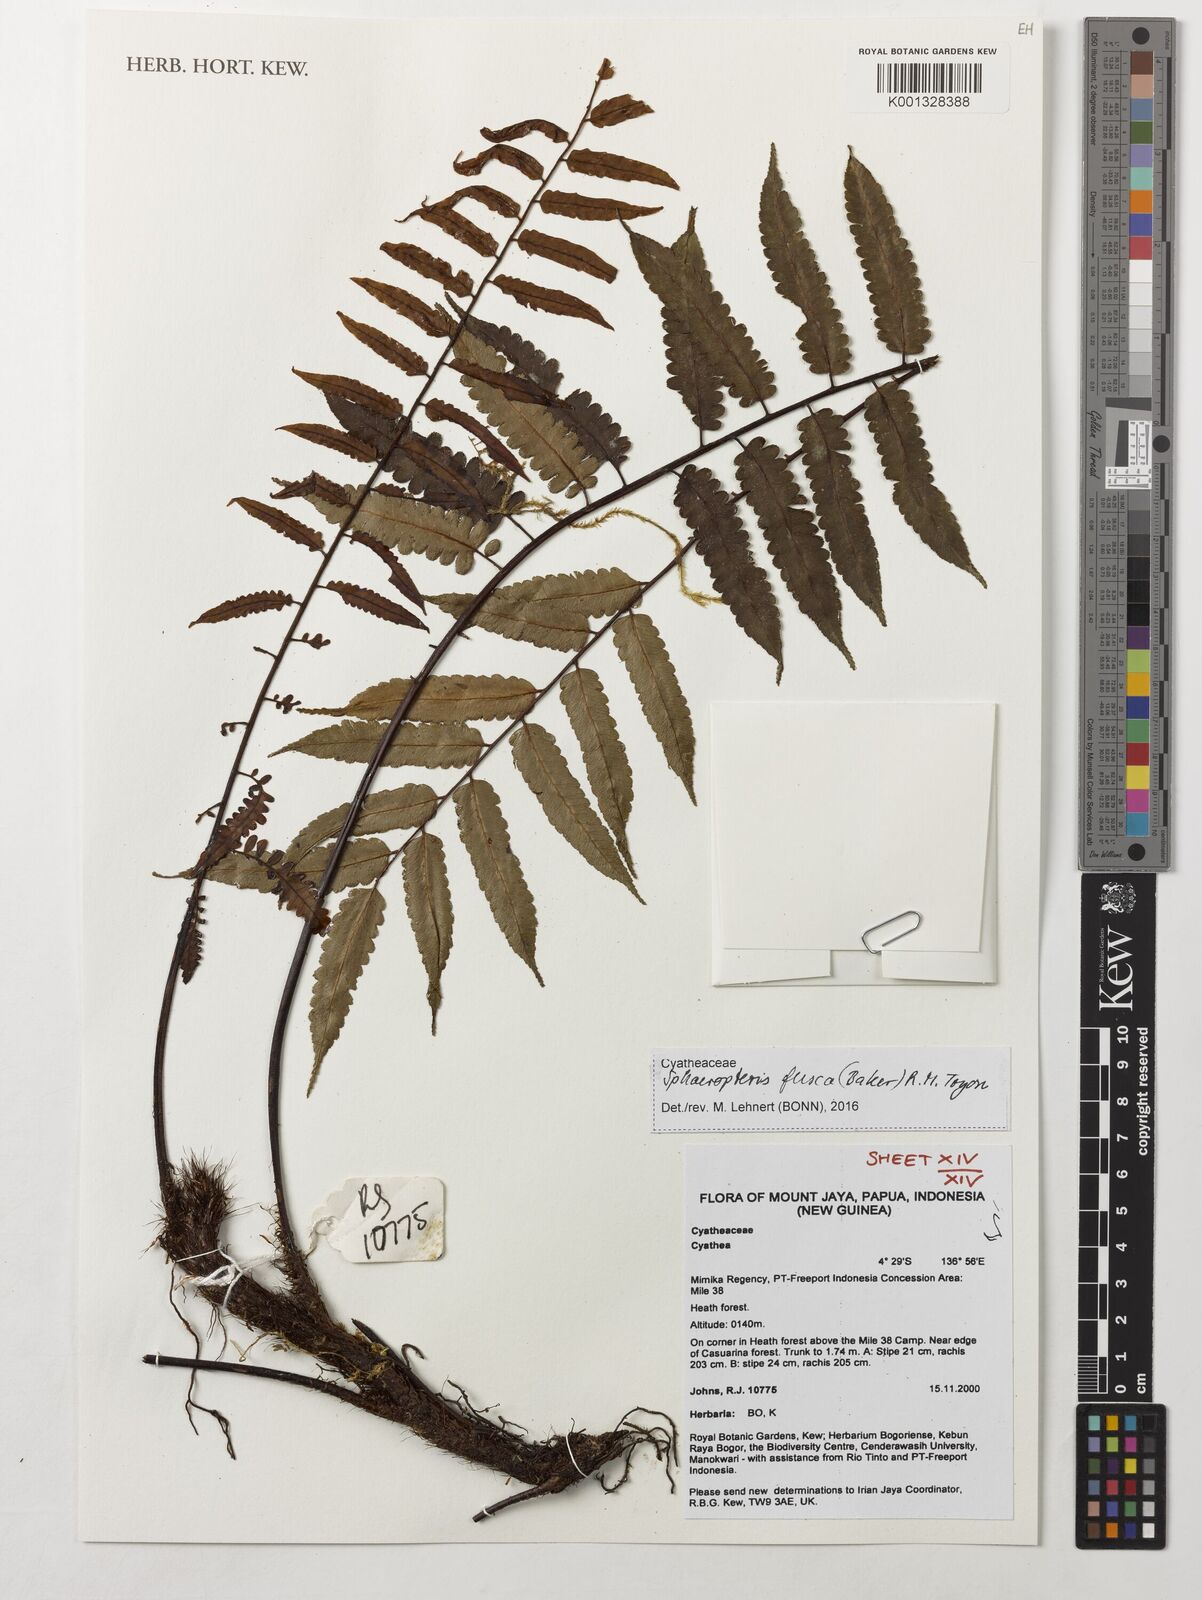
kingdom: Plantae
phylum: Tracheophyta
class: Polypodiopsida
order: Cyatheales
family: Cyatheaceae
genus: Sphaeropteris
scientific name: Sphaeropteris fusca
